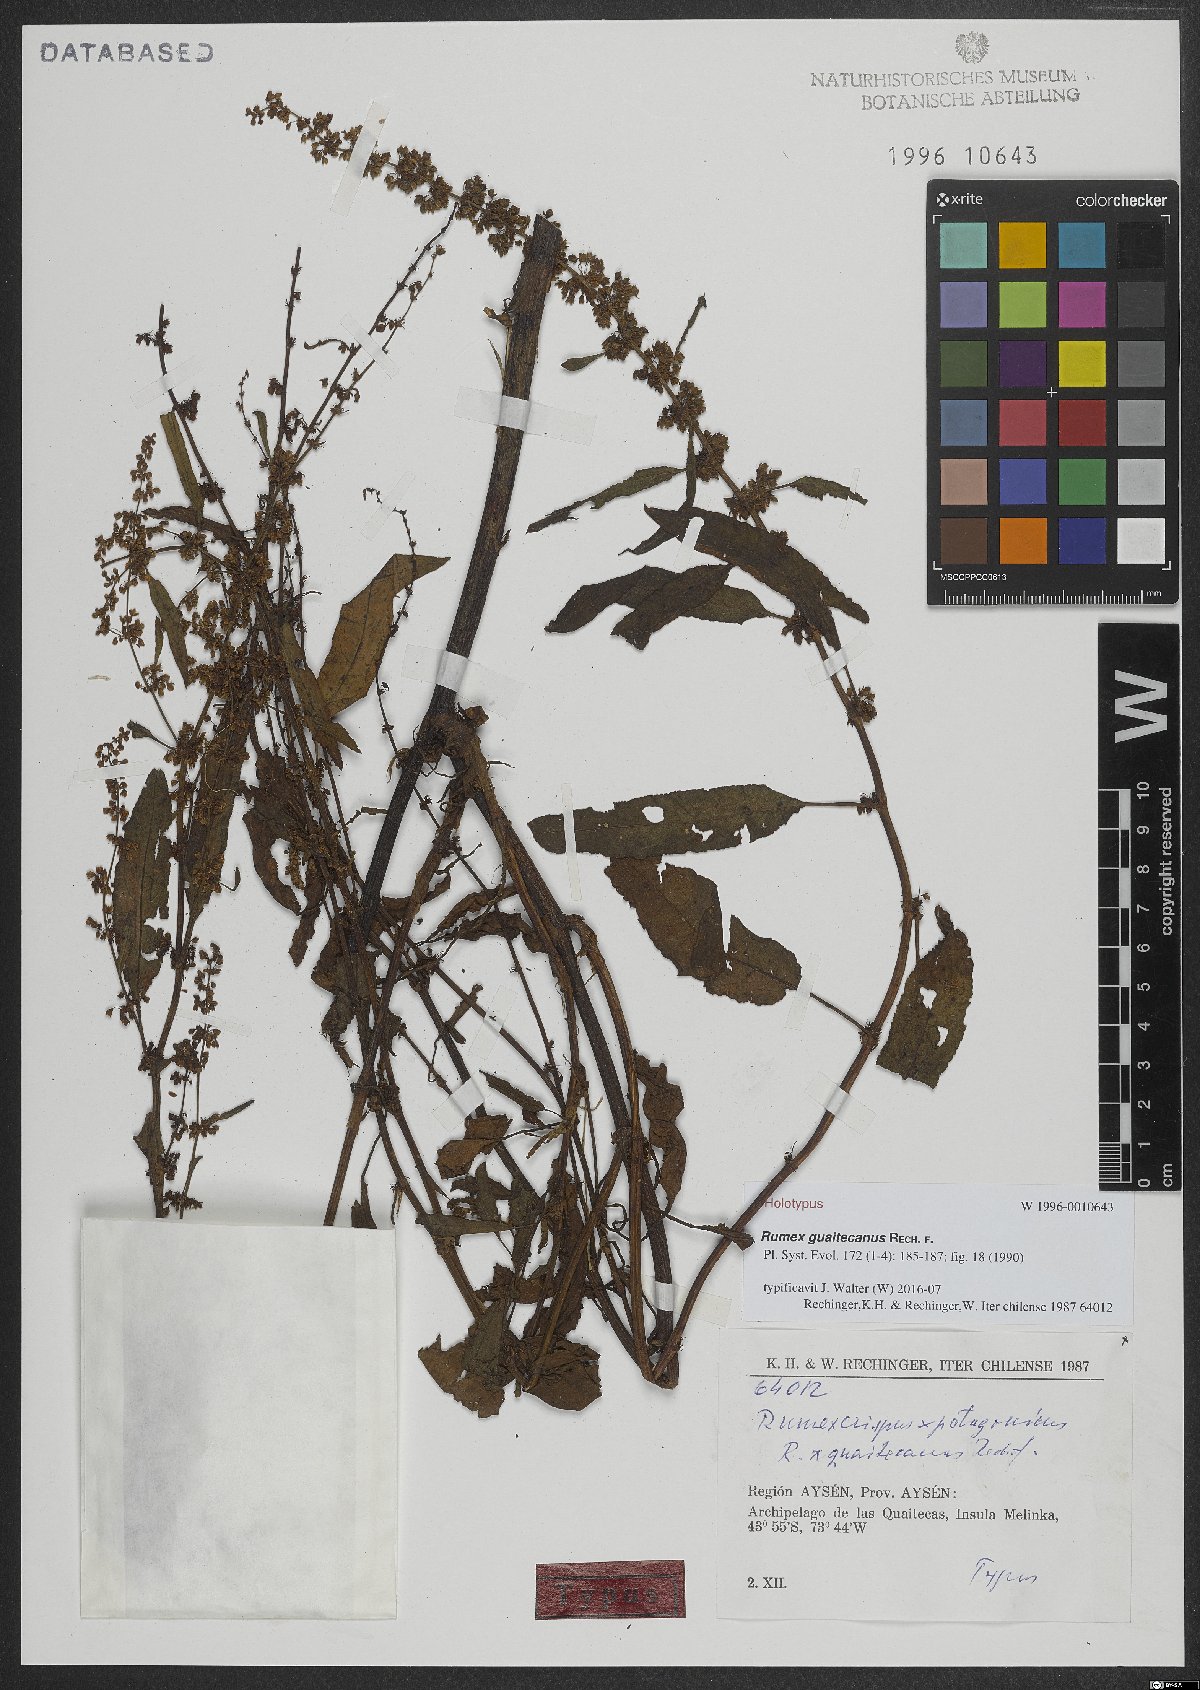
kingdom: Plantae
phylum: Tracheophyta
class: Magnoliopsida
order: Caryophyllales
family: Polygonaceae
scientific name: Polygonaceae
